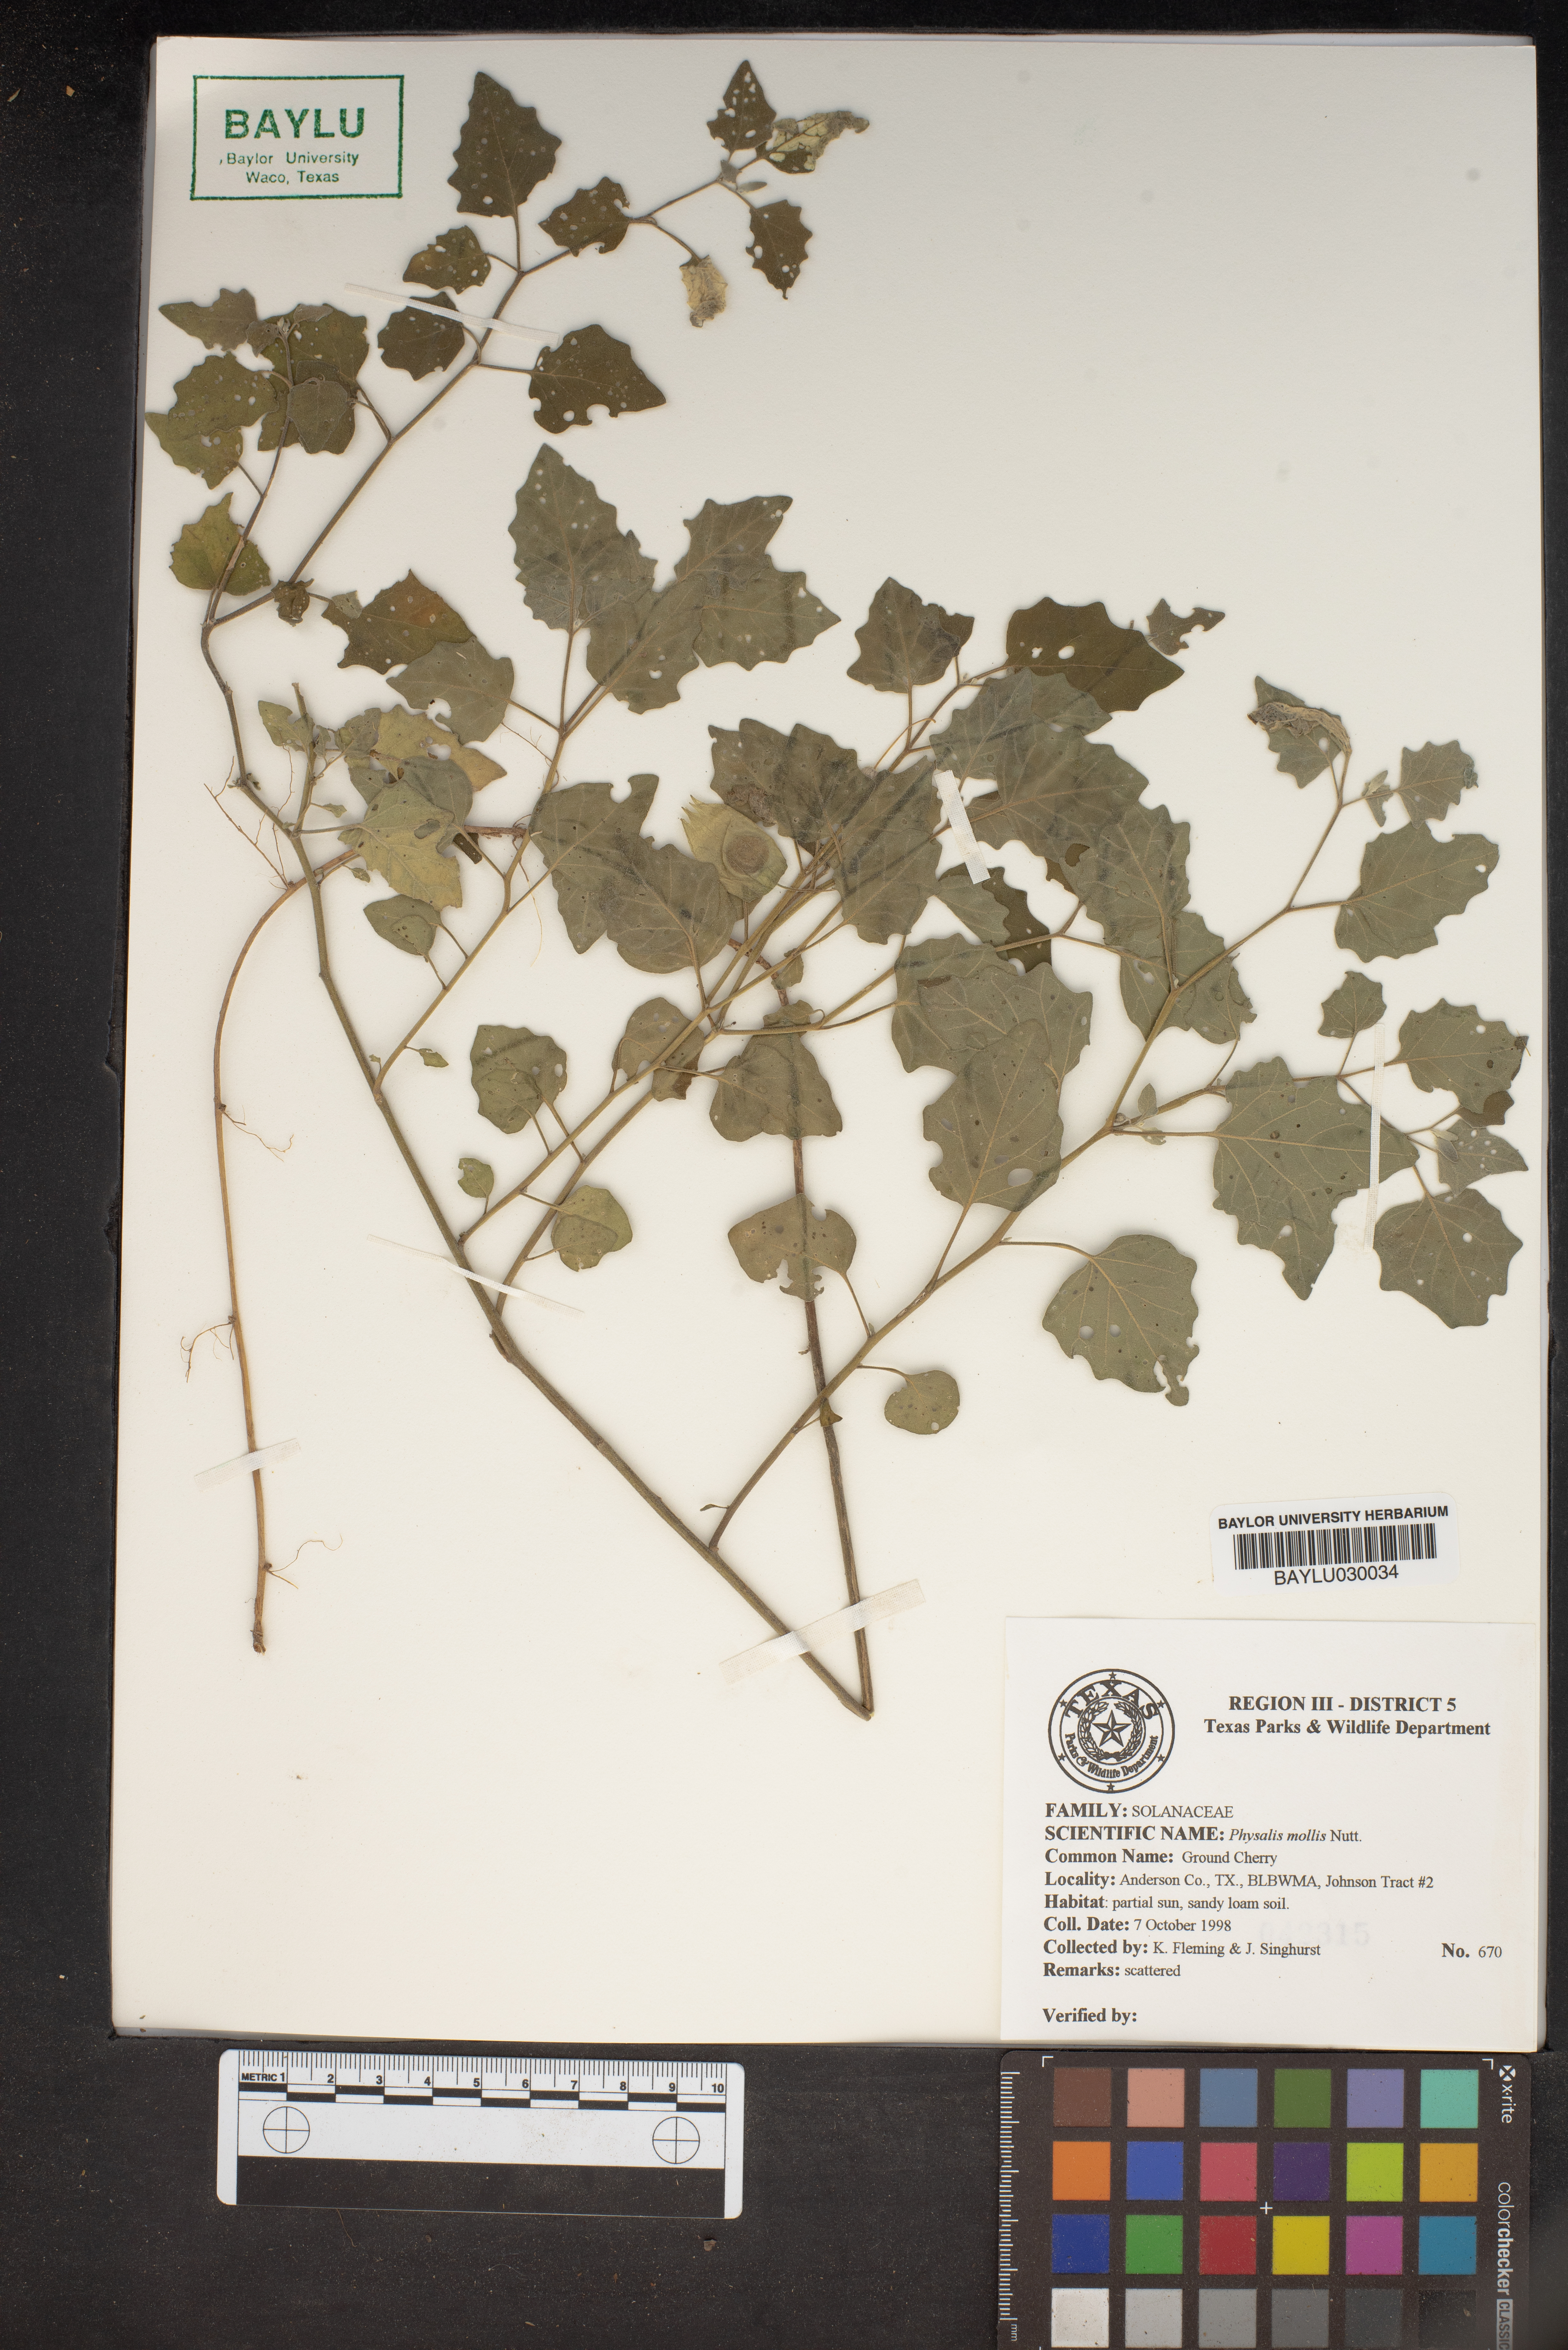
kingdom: Plantae
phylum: Tracheophyta
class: Magnoliopsida
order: Solanales
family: Solanaceae
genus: Physalis
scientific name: Physalis mollis
